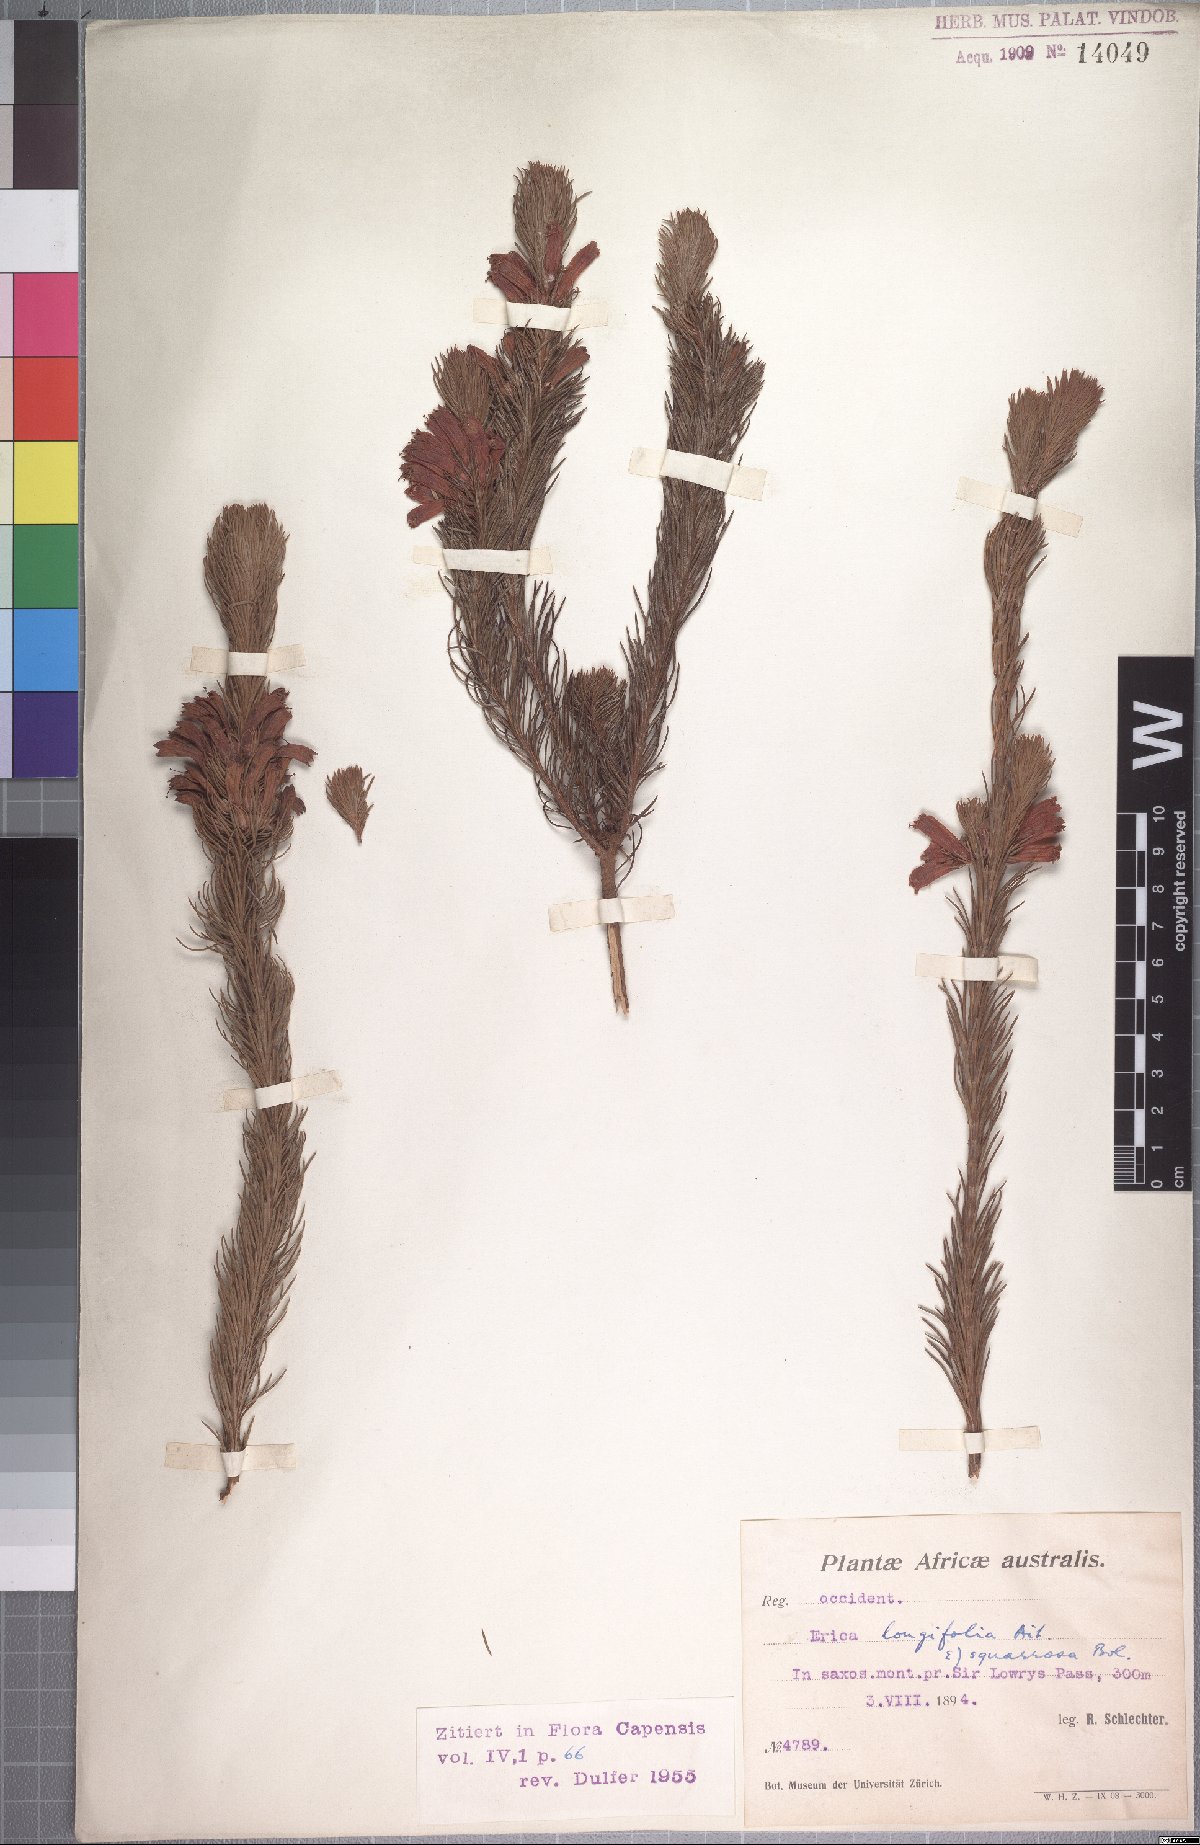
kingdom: Plantae
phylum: Tracheophyta
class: Magnoliopsida
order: Ericales
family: Ericaceae
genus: Erica
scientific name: Erica viscaria
